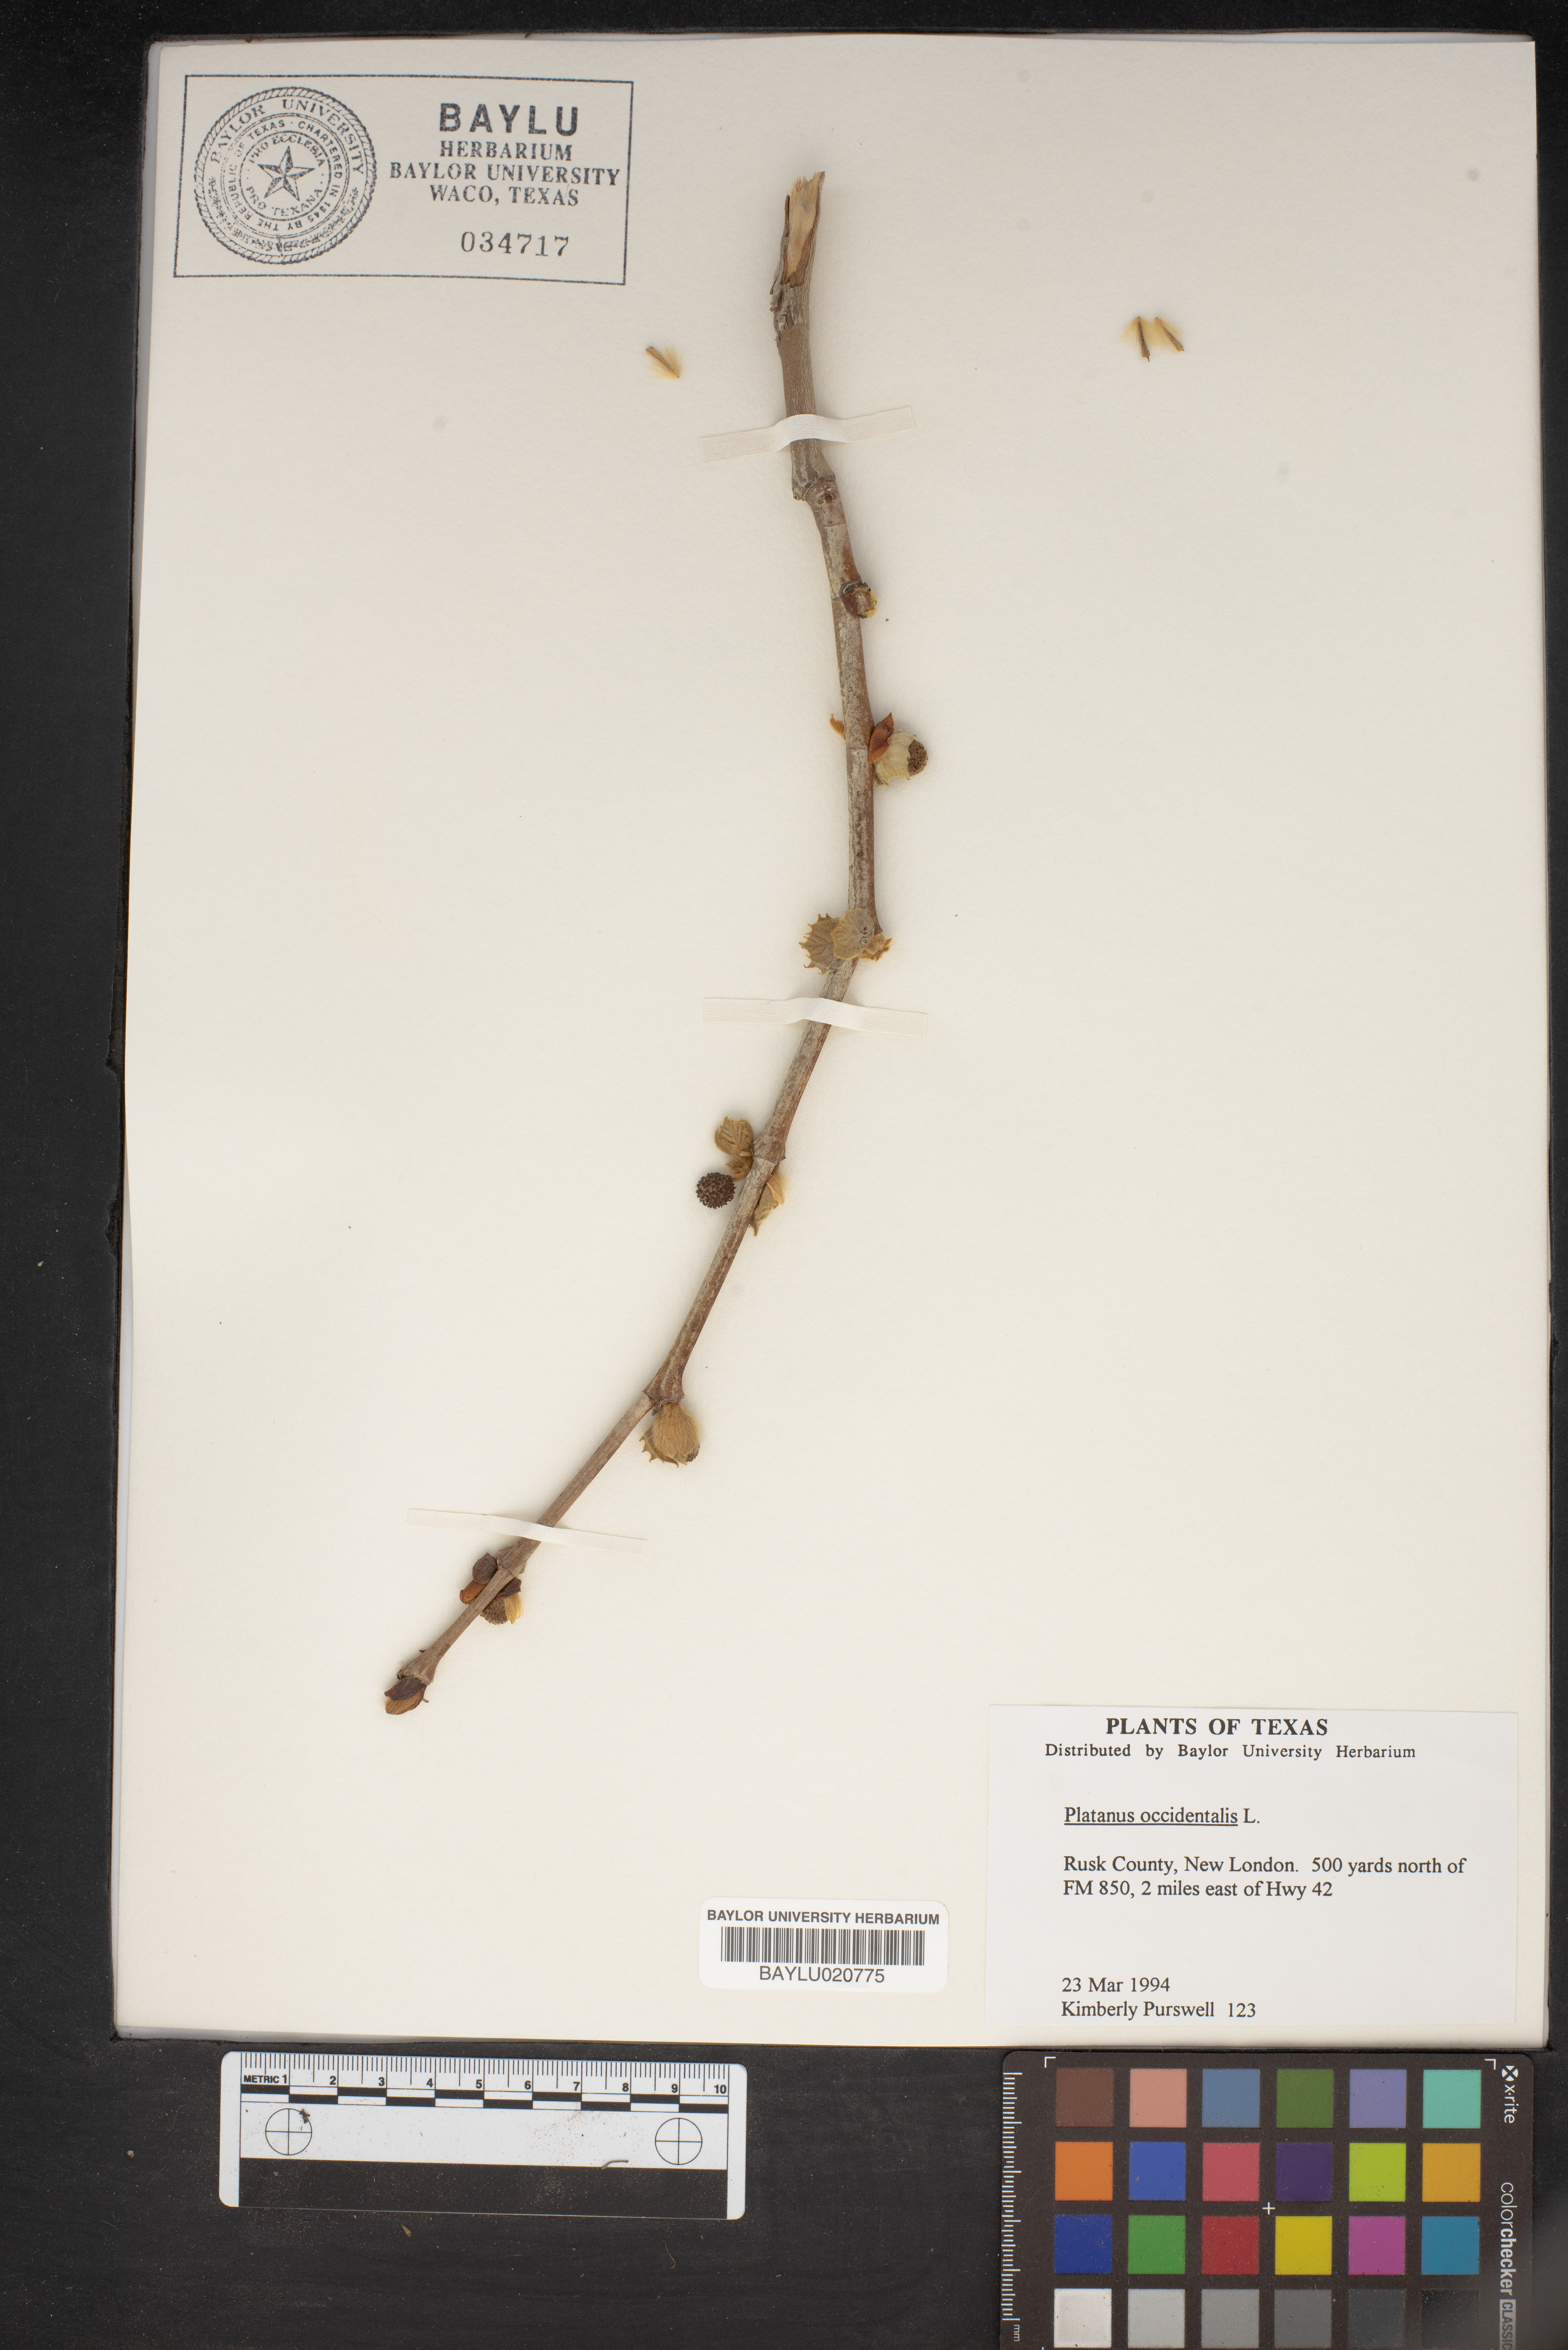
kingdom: Plantae
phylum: Tracheophyta
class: Magnoliopsida
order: Proteales
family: Platanaceae
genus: Platanus
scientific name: Platanus occidentalis
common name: American sycamore
